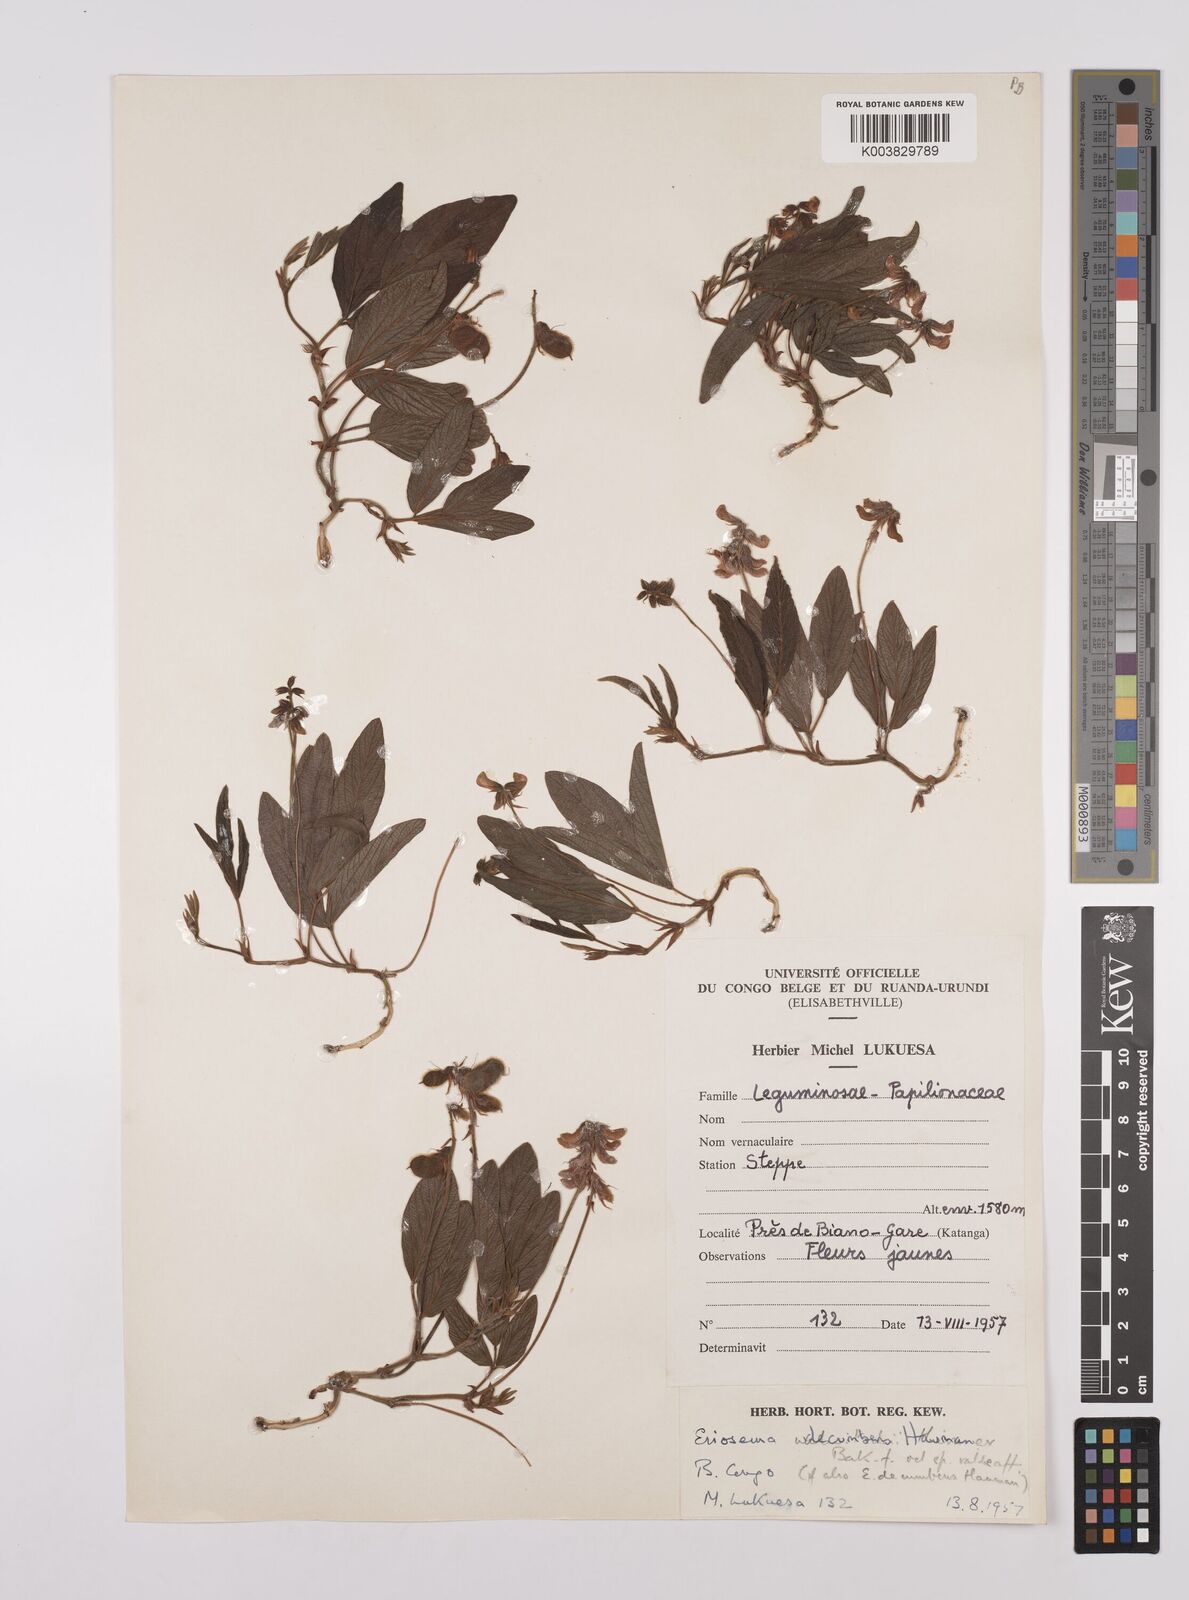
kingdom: Plantae
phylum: Tracheophyta
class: Magnoliopsida
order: Fabales
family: Fabaceae
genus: Eriosema
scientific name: Eriosema decumbens
